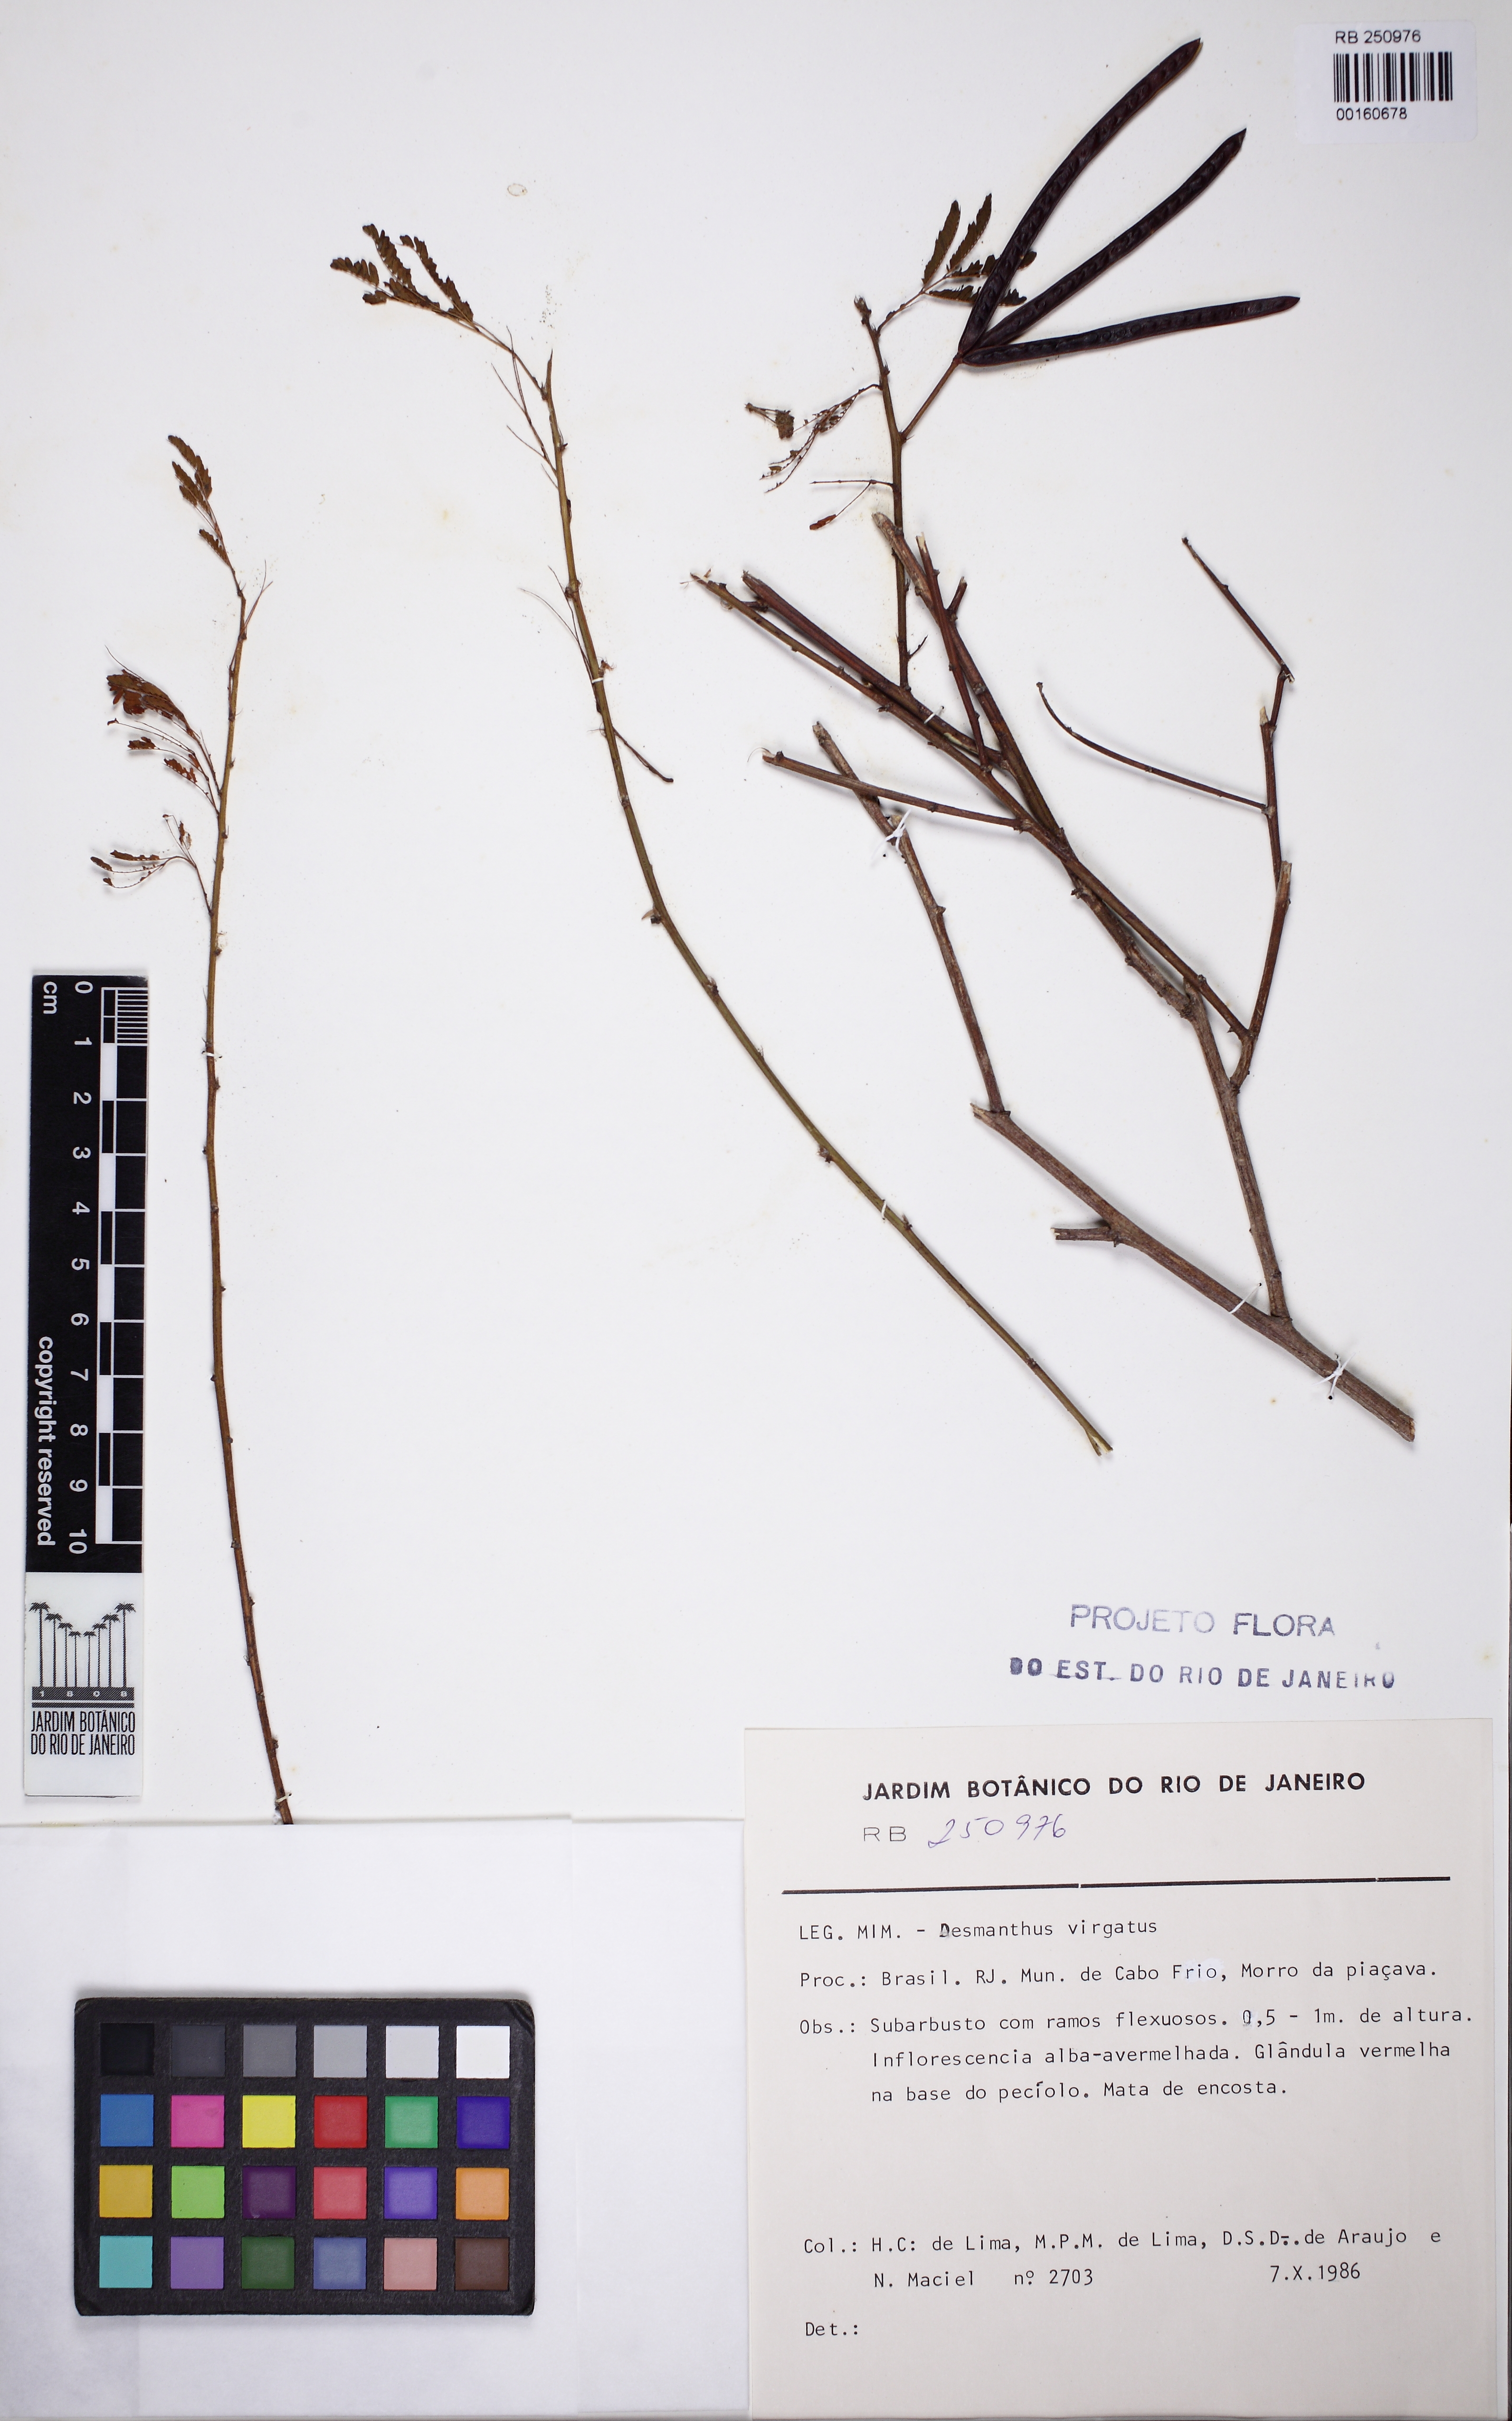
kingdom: Plantae
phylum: Tracheophyta
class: Magnoliopsida
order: Fabales
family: Fabaceae
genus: Desmanthus
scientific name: Desmanthus virgatus
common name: Wild tantan
